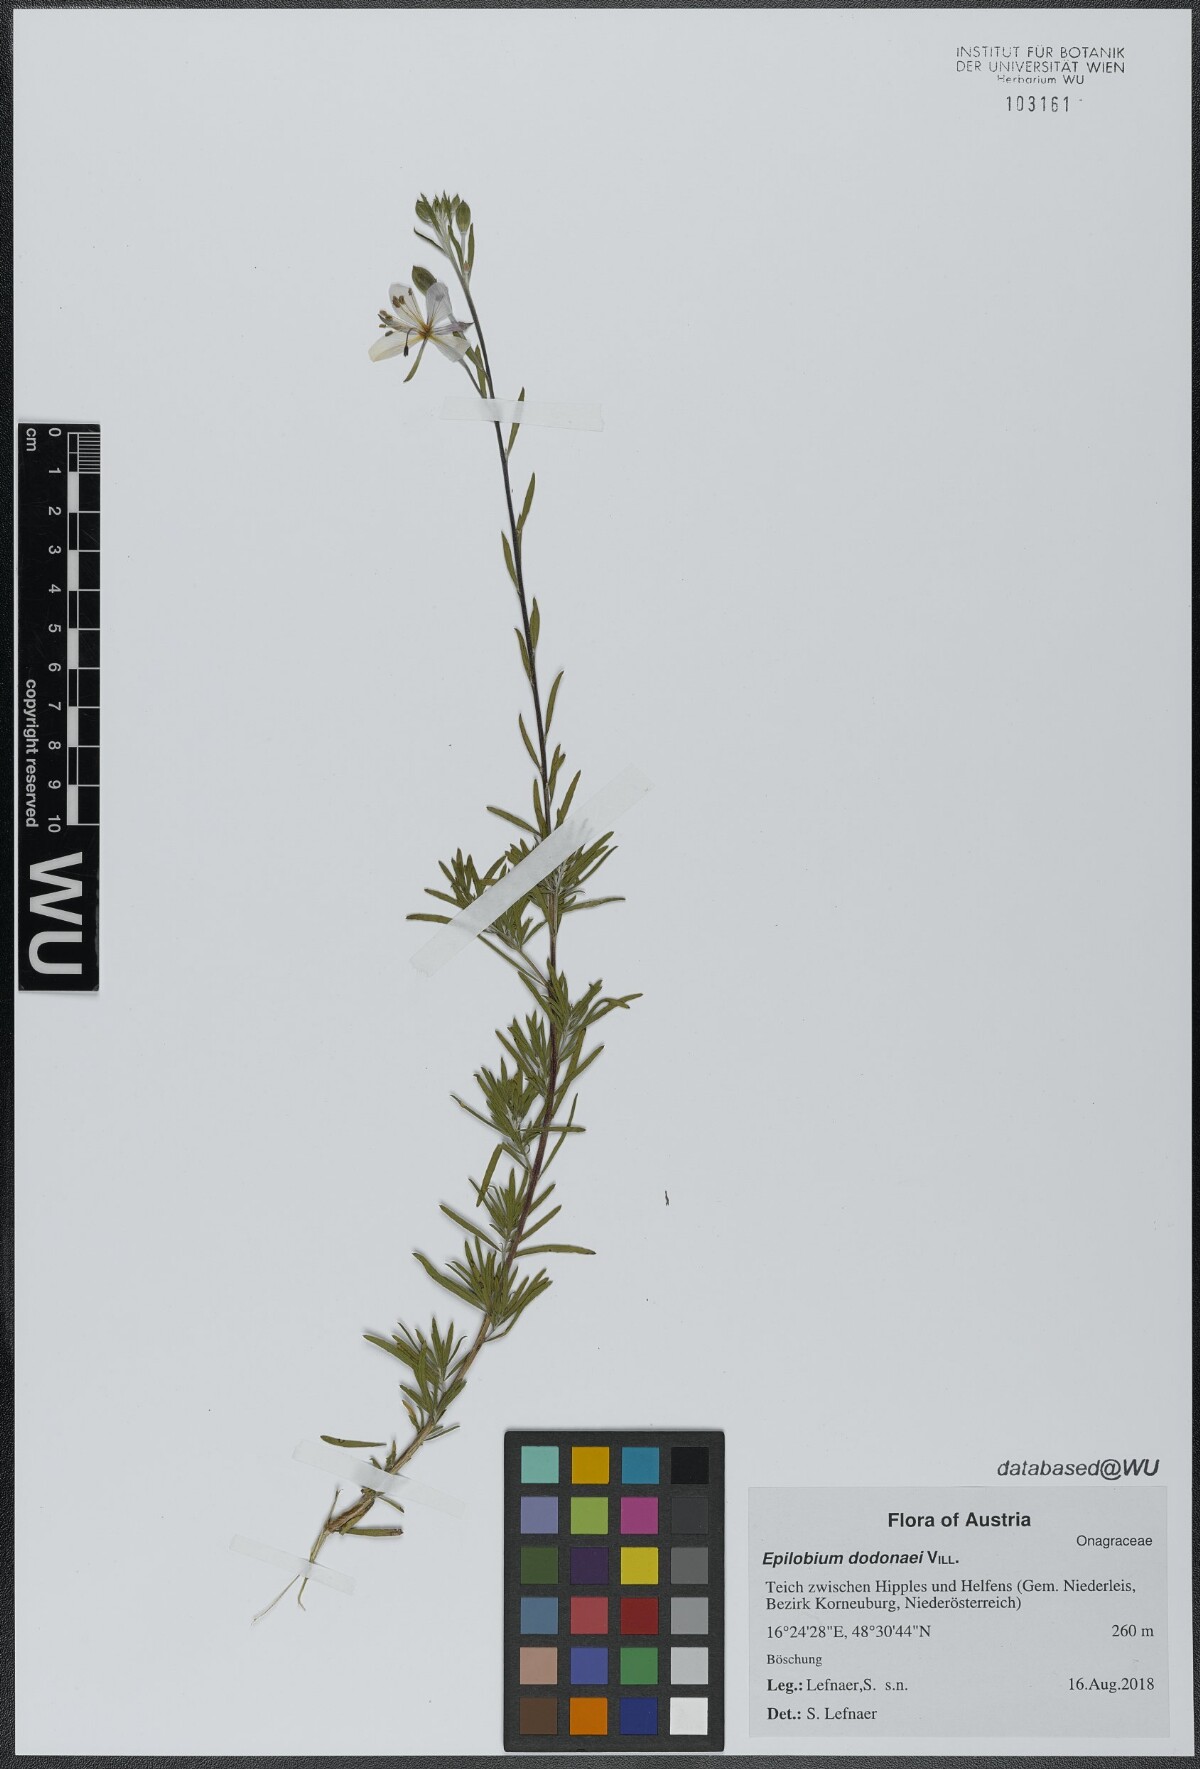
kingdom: Plantae
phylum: Tracheophyta
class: Magnoliopsida
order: Myrtales
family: Onagraceae
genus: Chamaenerion
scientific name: Chamaenerion dodonaei
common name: Rosemary-leaved willowherb
